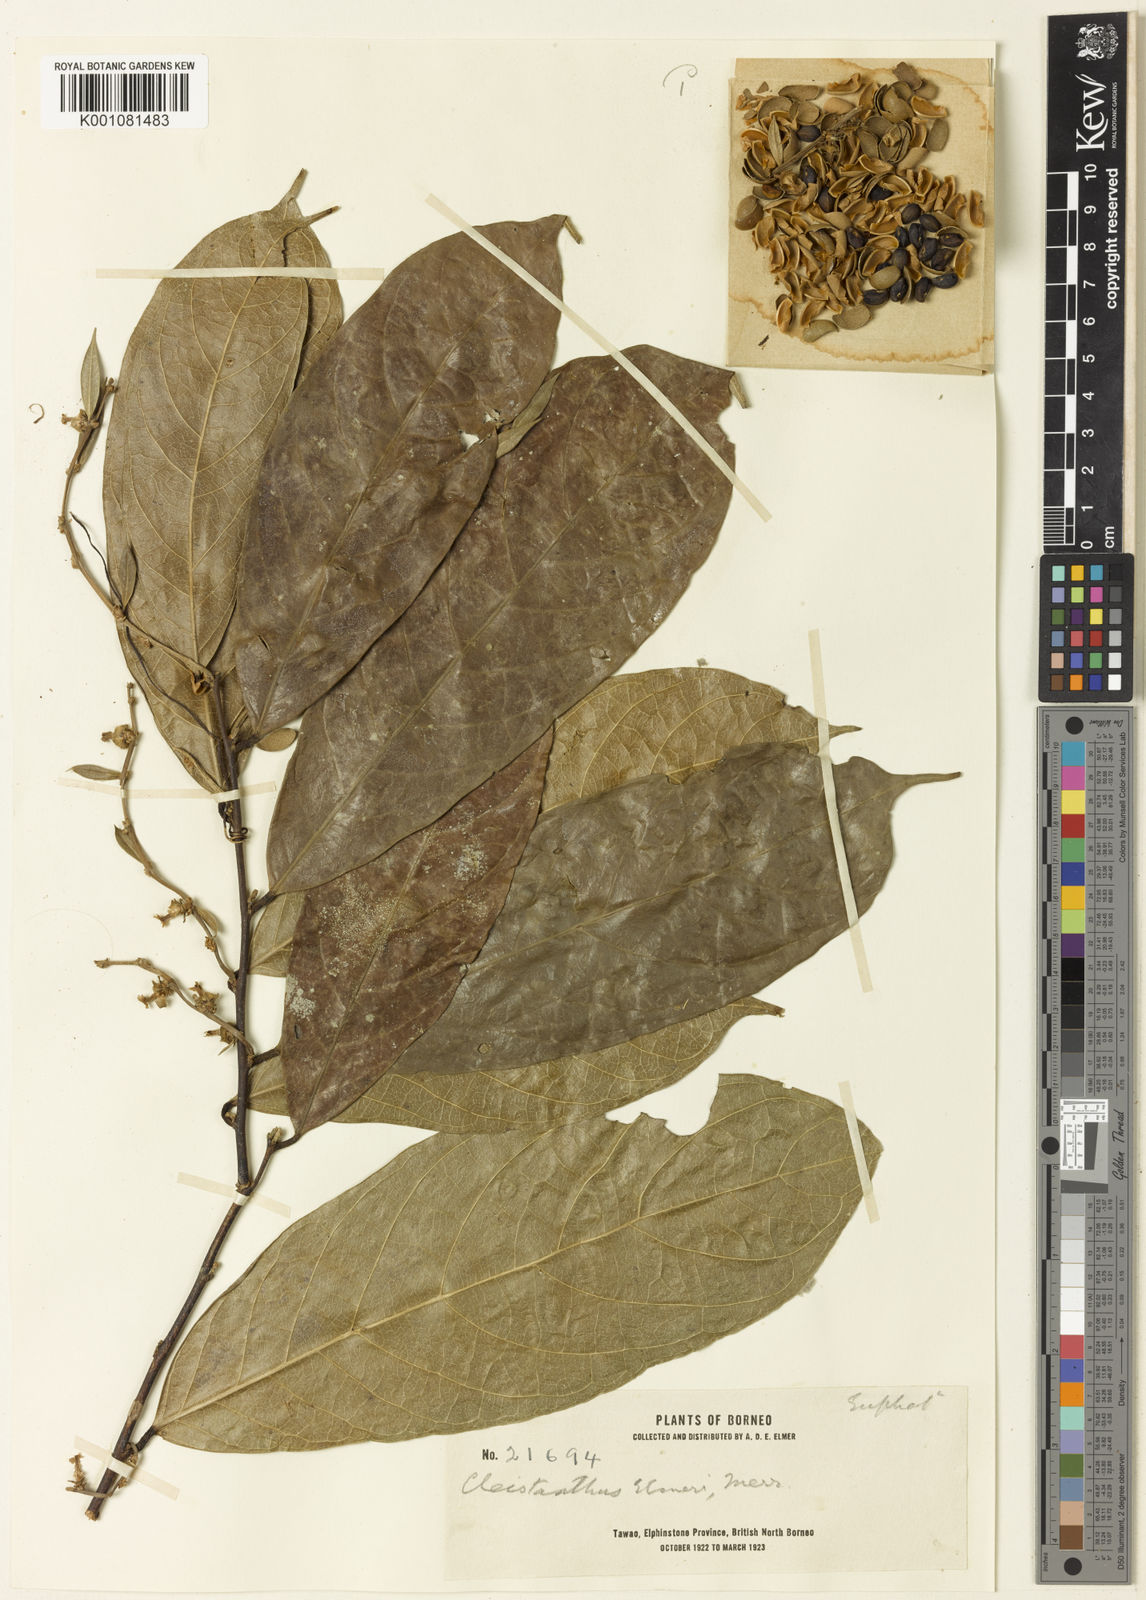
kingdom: Plantae
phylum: Tracheophyta
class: Magnoliopsida
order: Malpighiales
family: Phyllanthaceae
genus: Cleistanthus
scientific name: Cleistanthus venosus
